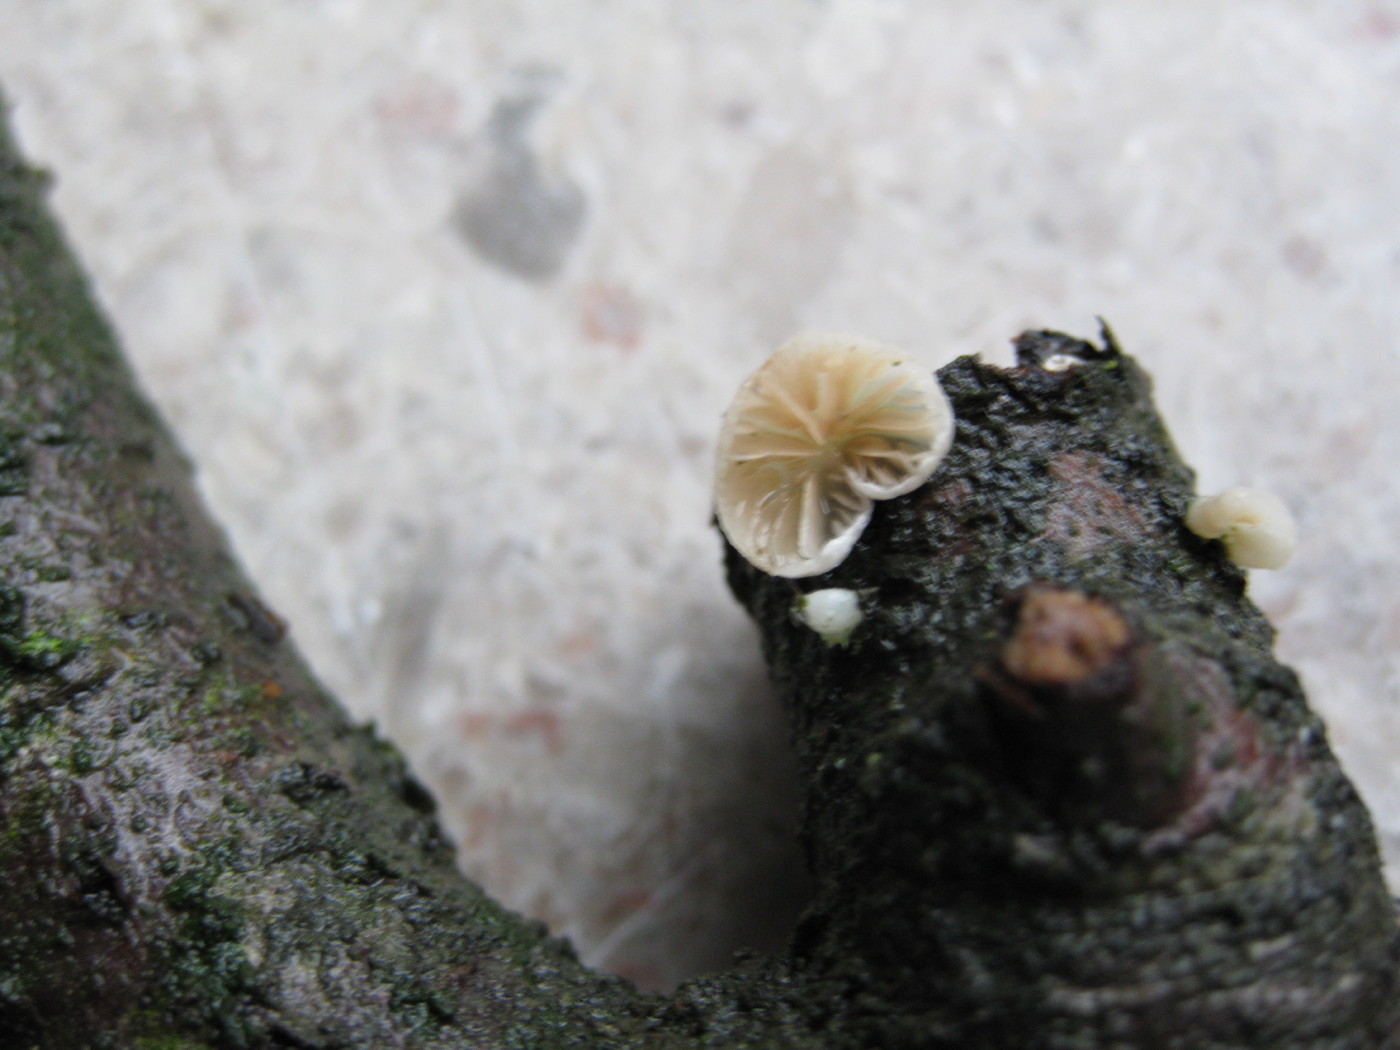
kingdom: Fungi
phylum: Basidiomycota
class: Agaricomycetes
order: Agaricales
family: Crepidotaceae
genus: Crepidotus
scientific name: Crepidotus cesatii
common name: almindelig muslingesvamp
